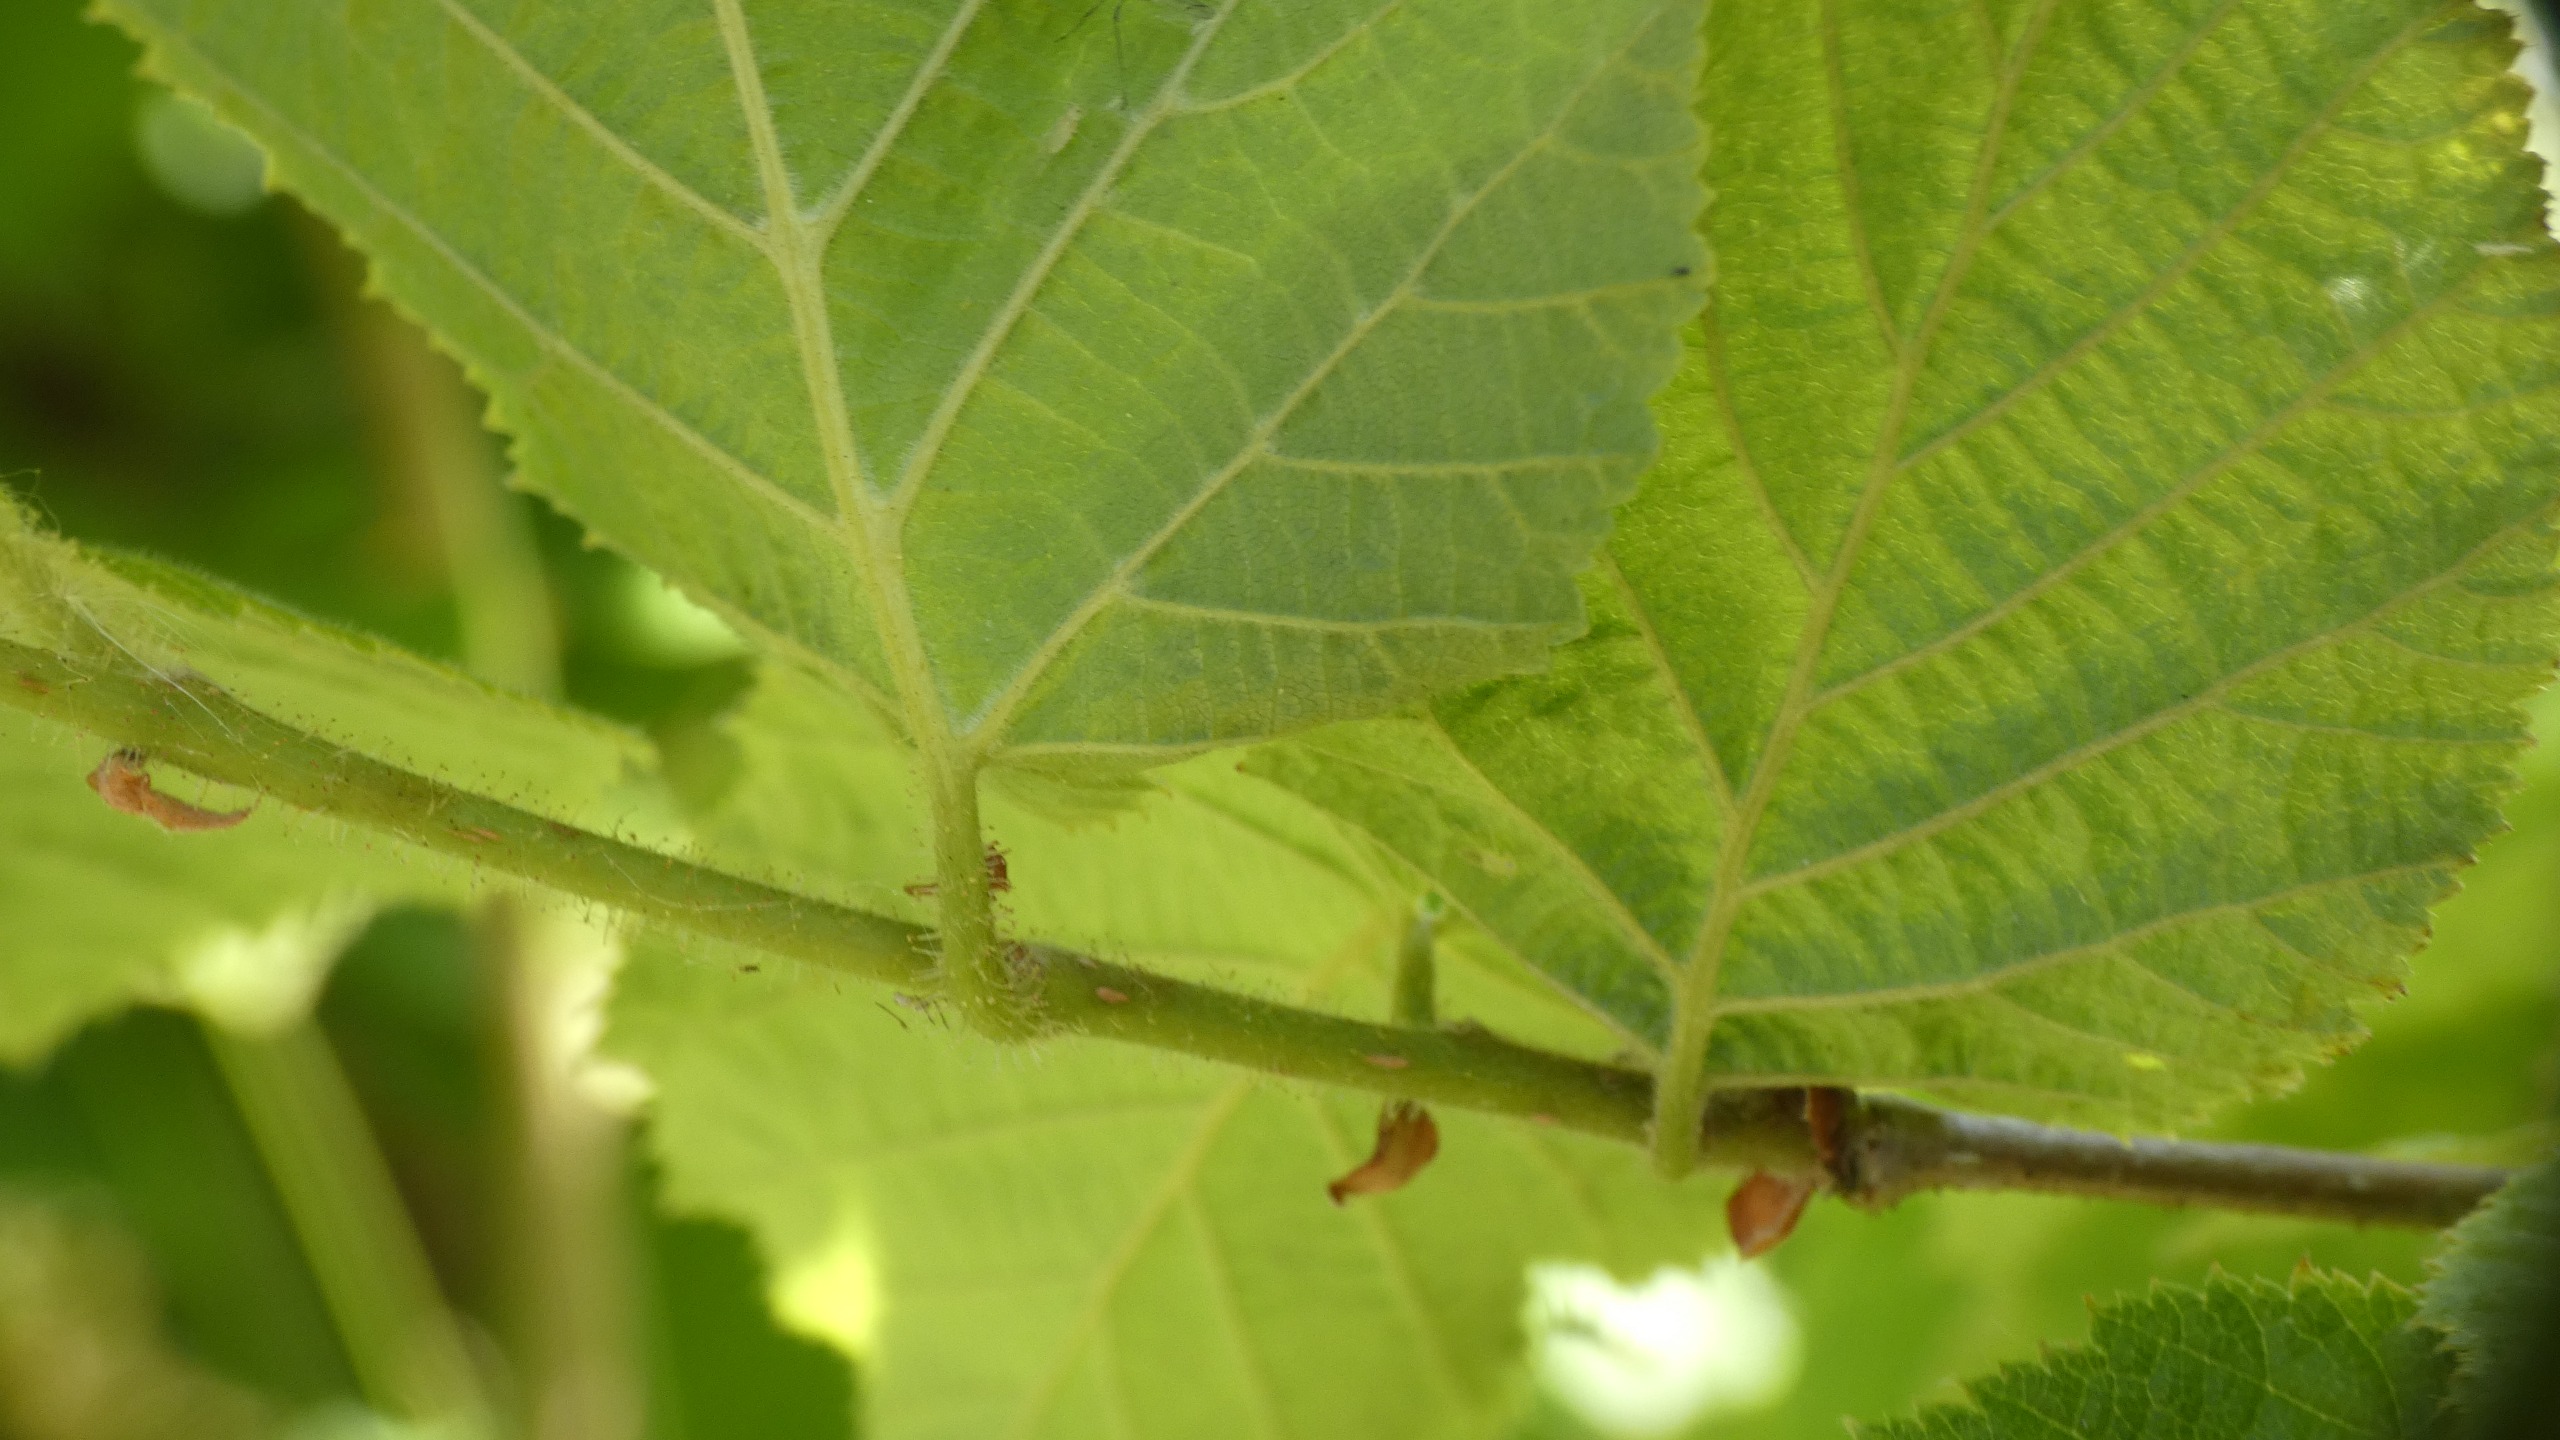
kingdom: Plantae
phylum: Tracheophyta
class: Magnoliopsida
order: Fagales
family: Betulaceae
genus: Corylus
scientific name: Corylus avellana
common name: Hassel
